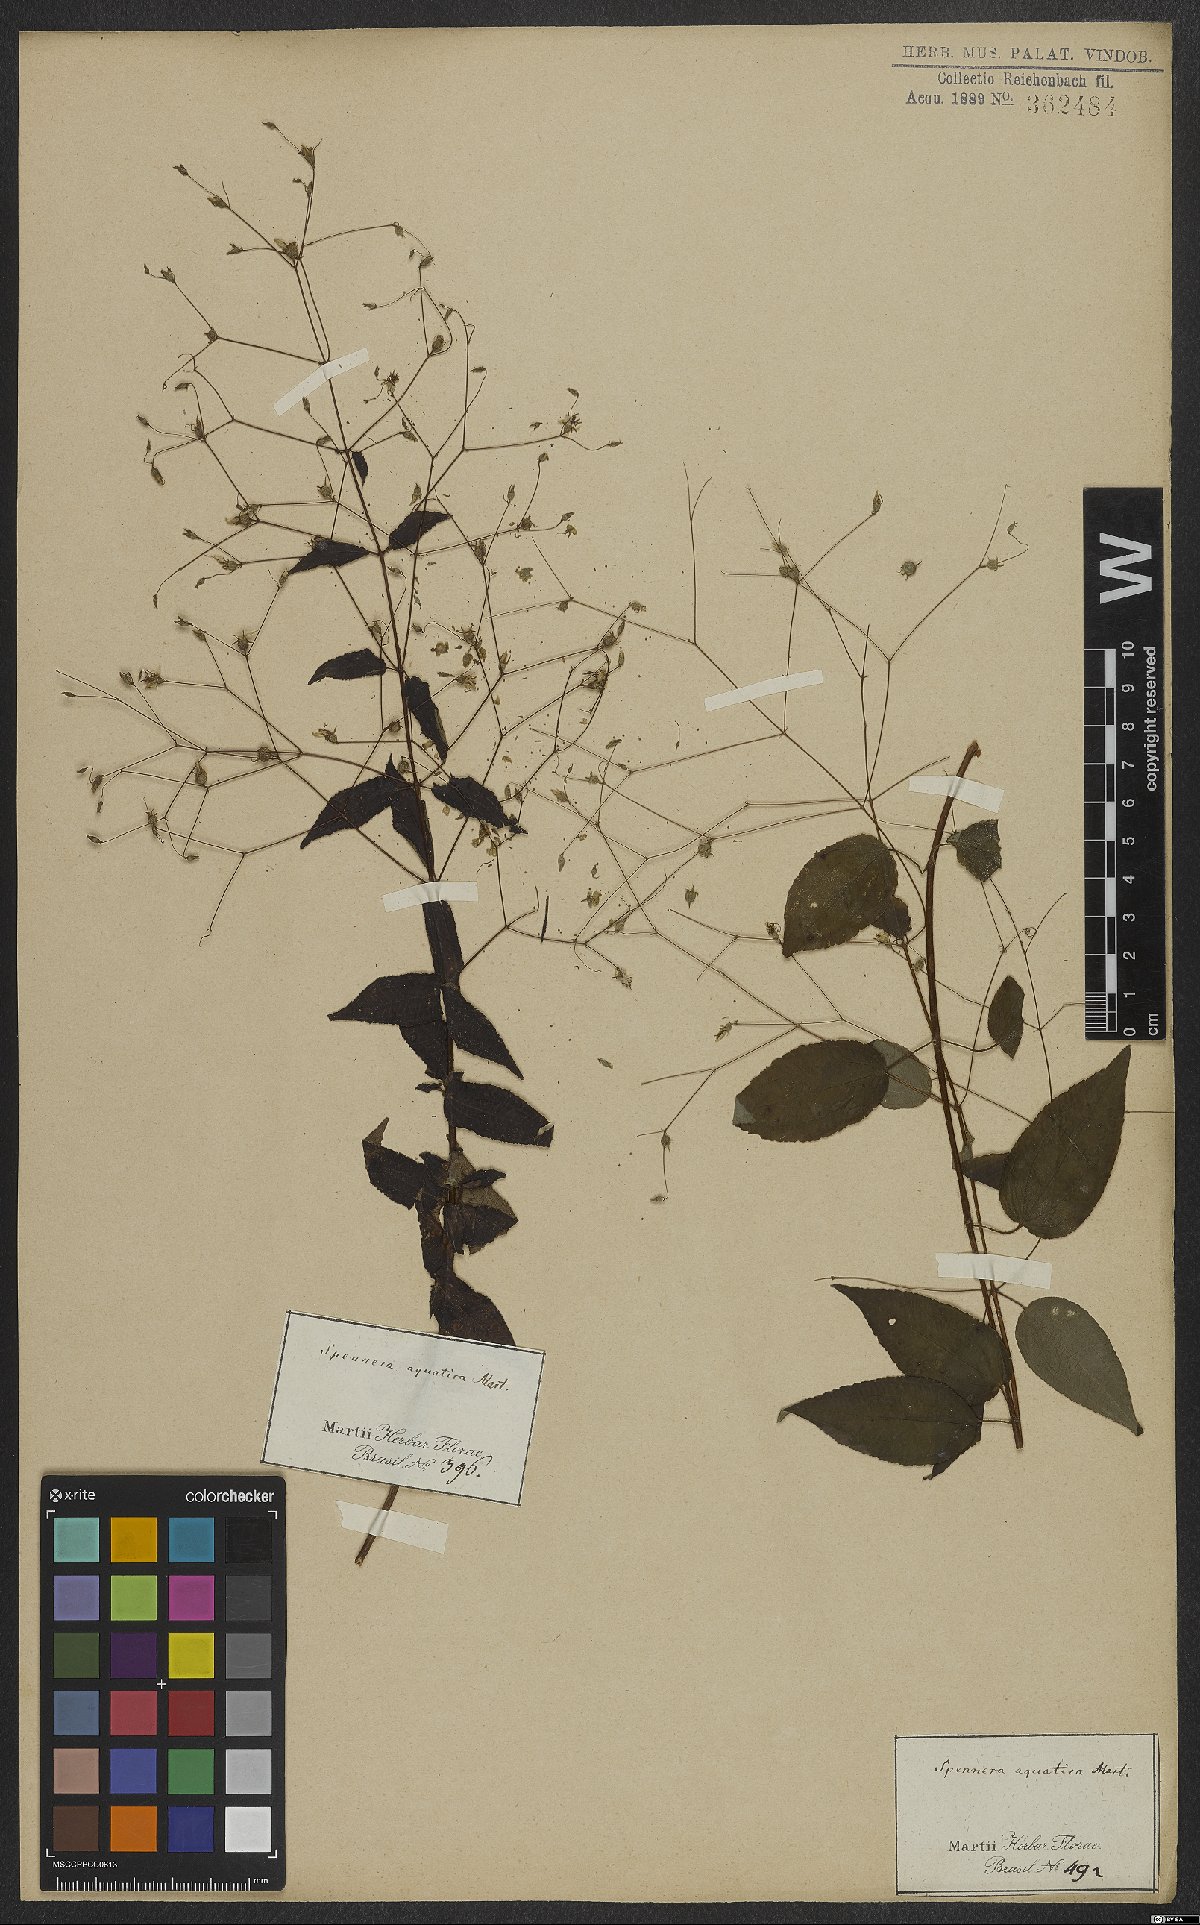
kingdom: Plantae
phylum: Tracheophyta
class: Magnoliopsida
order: Myrtales
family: Melastomataceae
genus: Nepsera
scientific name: Nepsera aquatica
